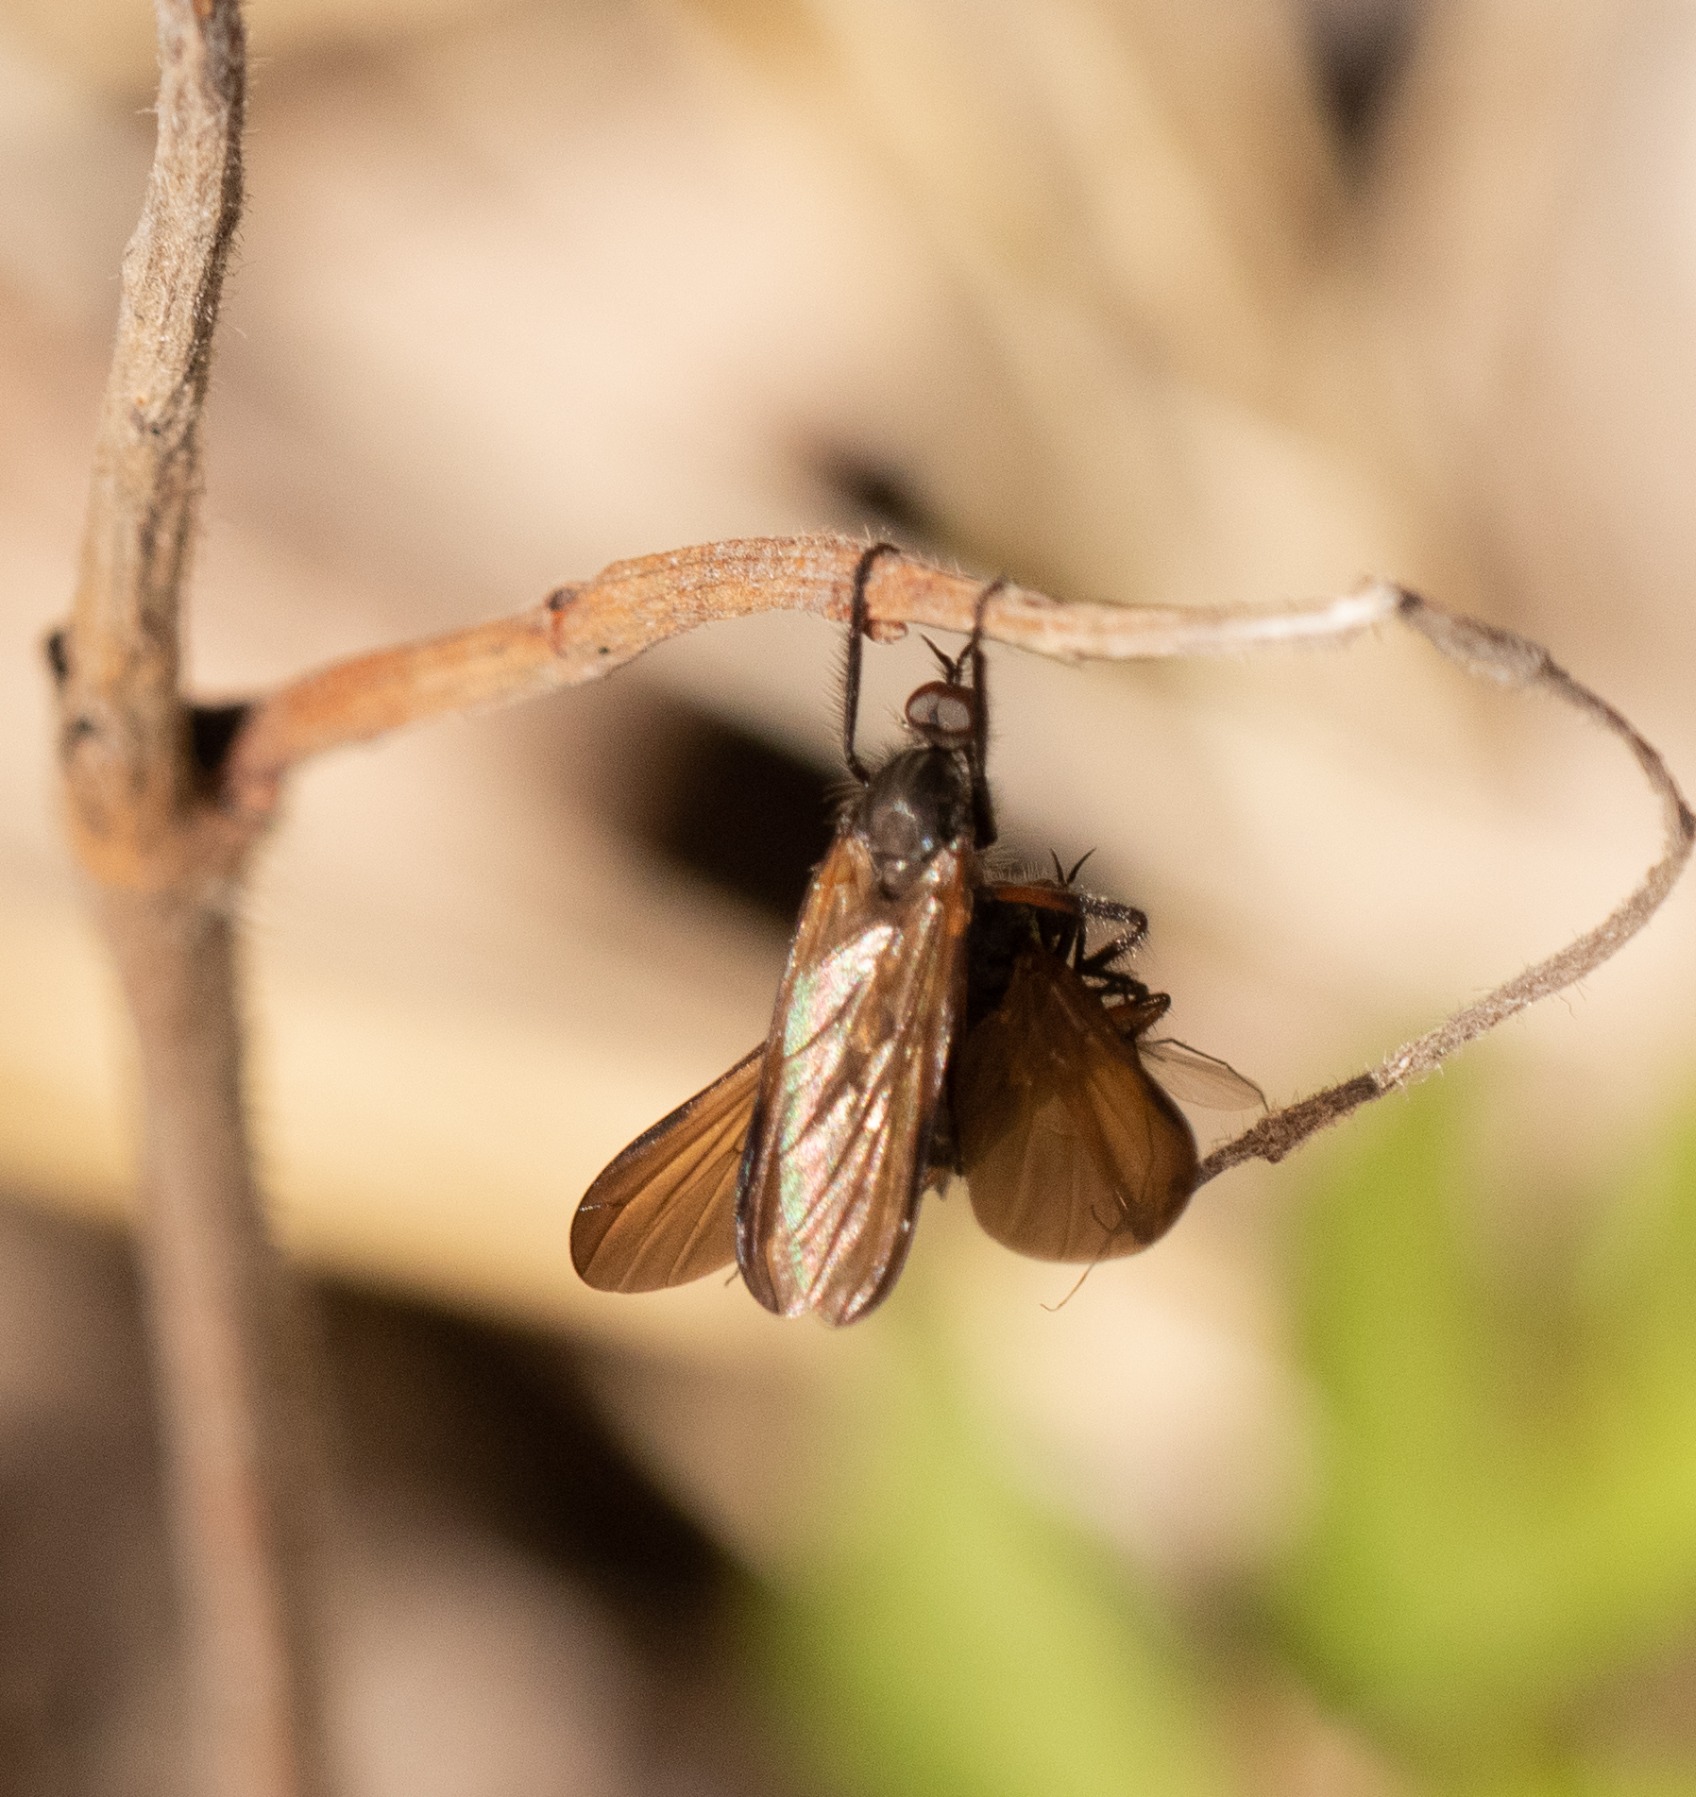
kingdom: Animalia
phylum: Arthropoda
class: Insecta
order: Diptera
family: Empididae
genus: Empis
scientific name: Empis borealis
